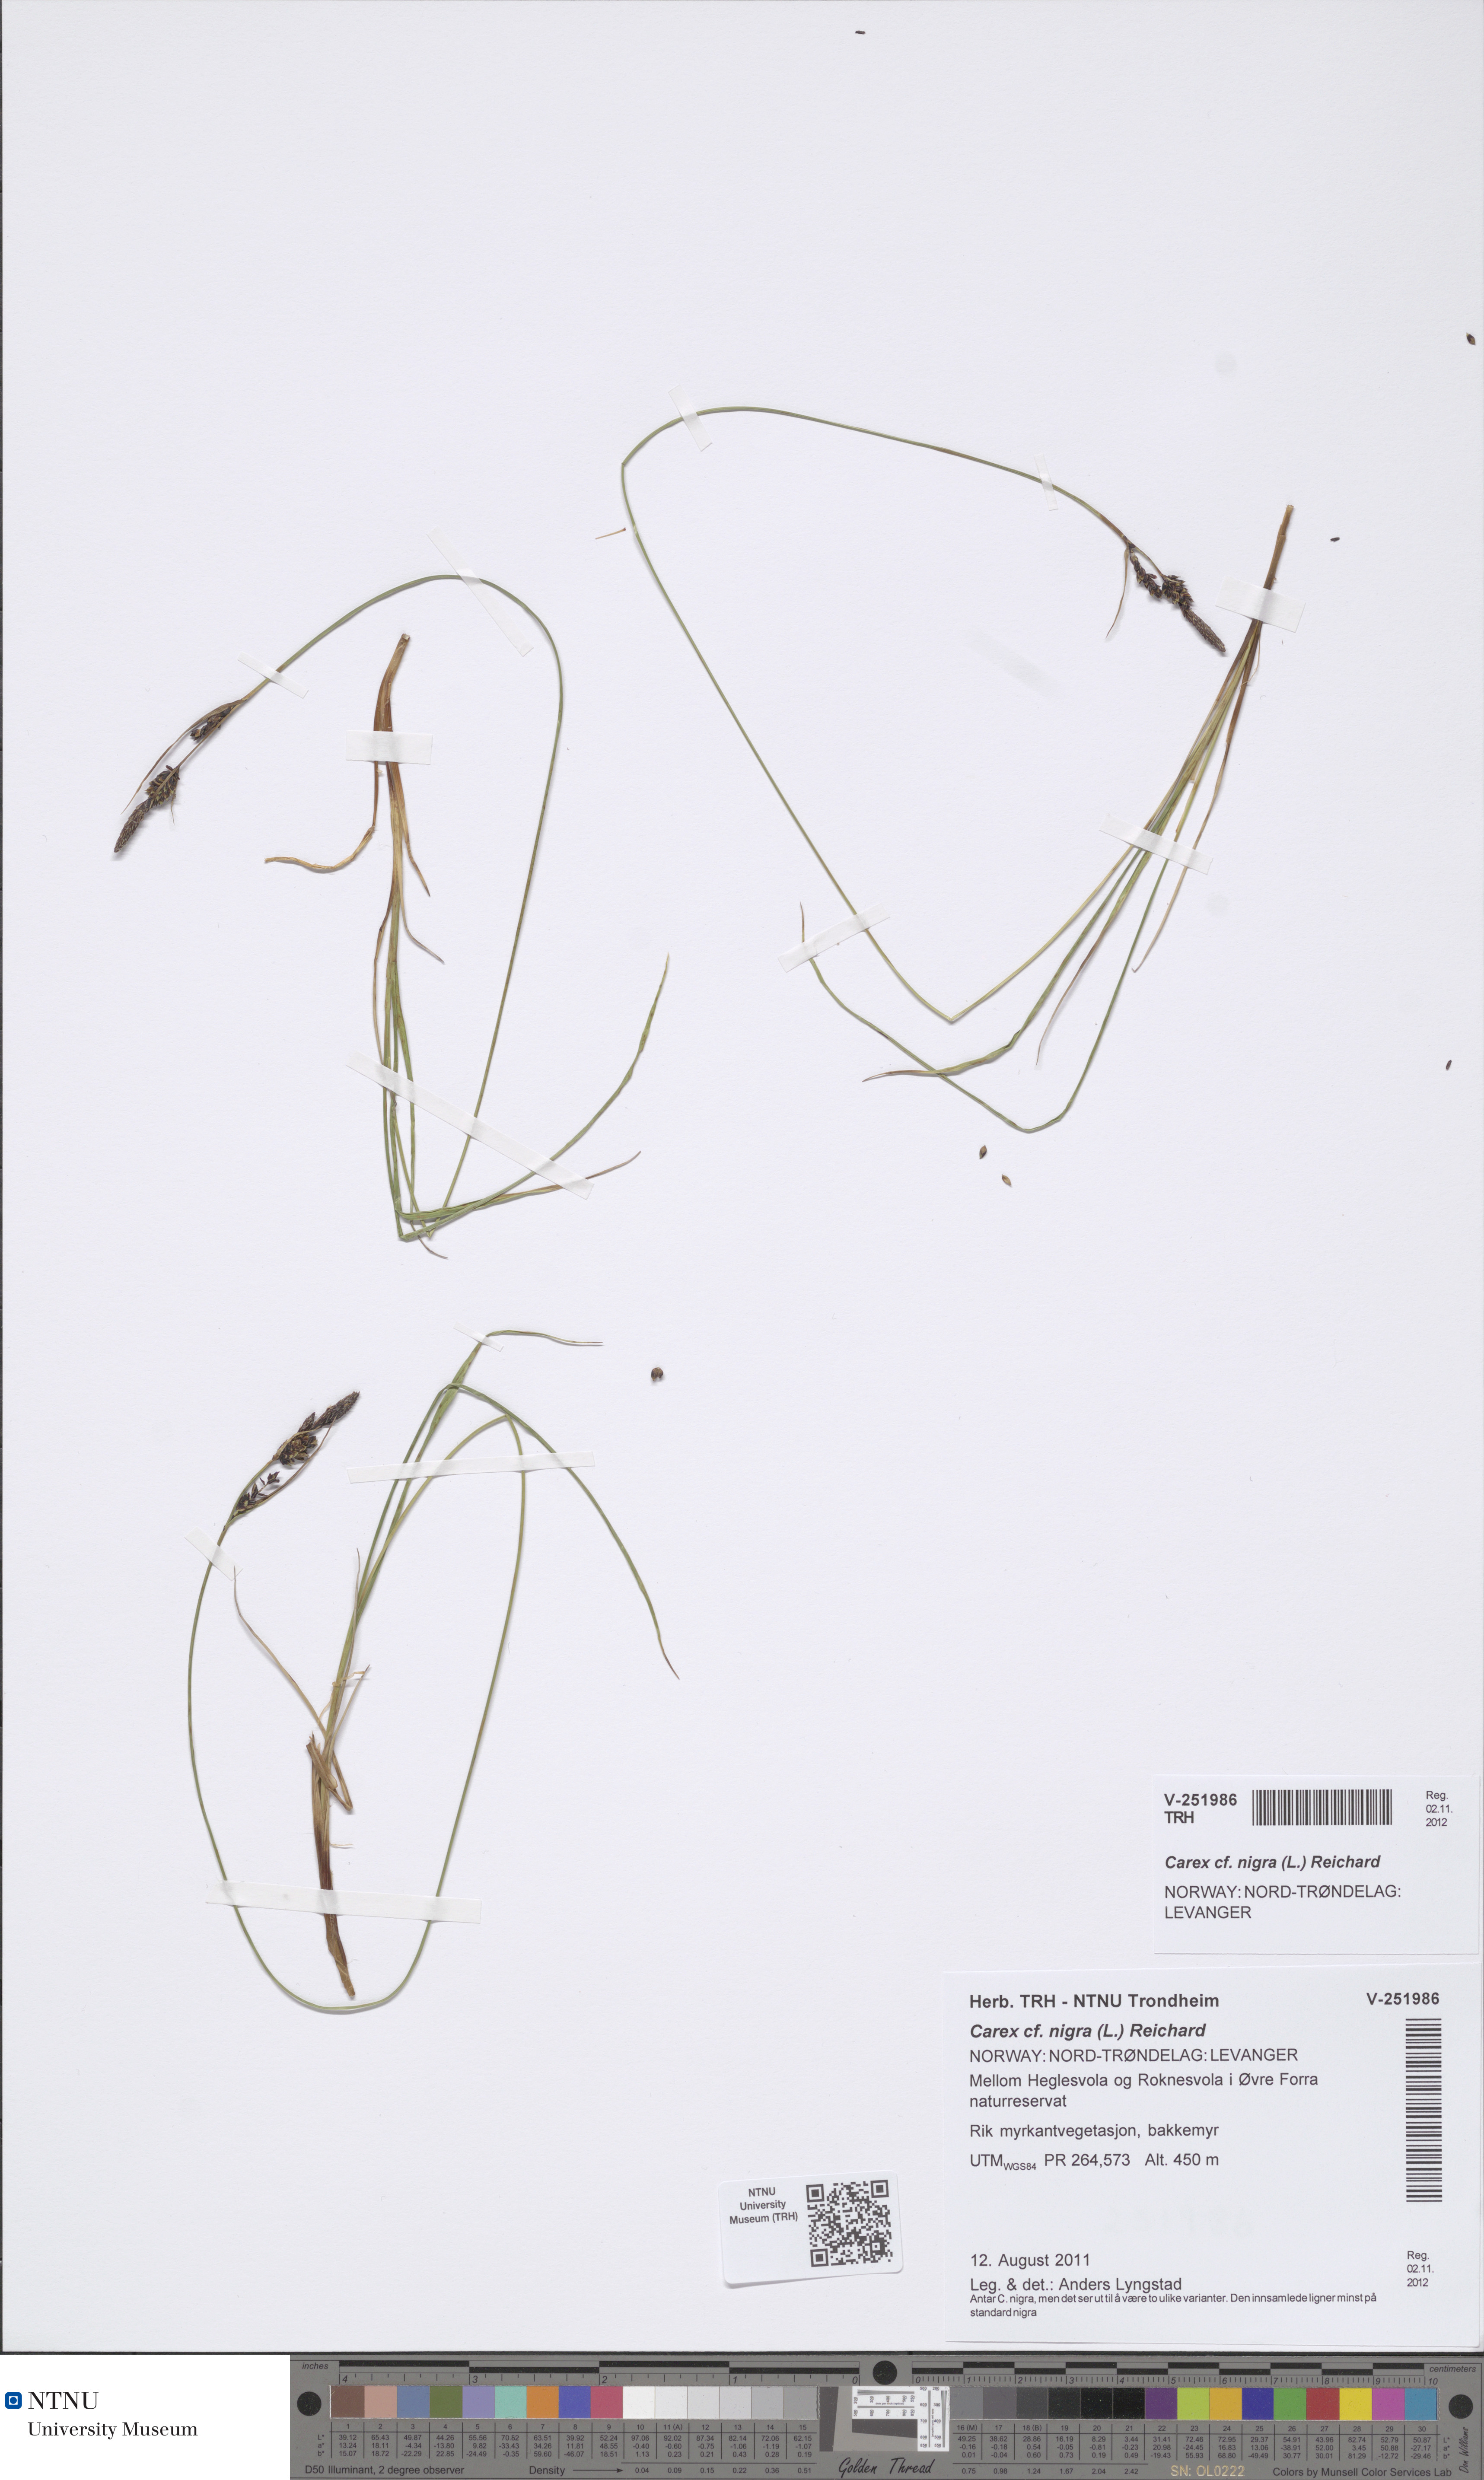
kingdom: Plantae
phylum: Tracheophyta
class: Liliopsida
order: Poales
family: Cyperaceae
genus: Carex
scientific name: Carex nigra
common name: Common sedge
